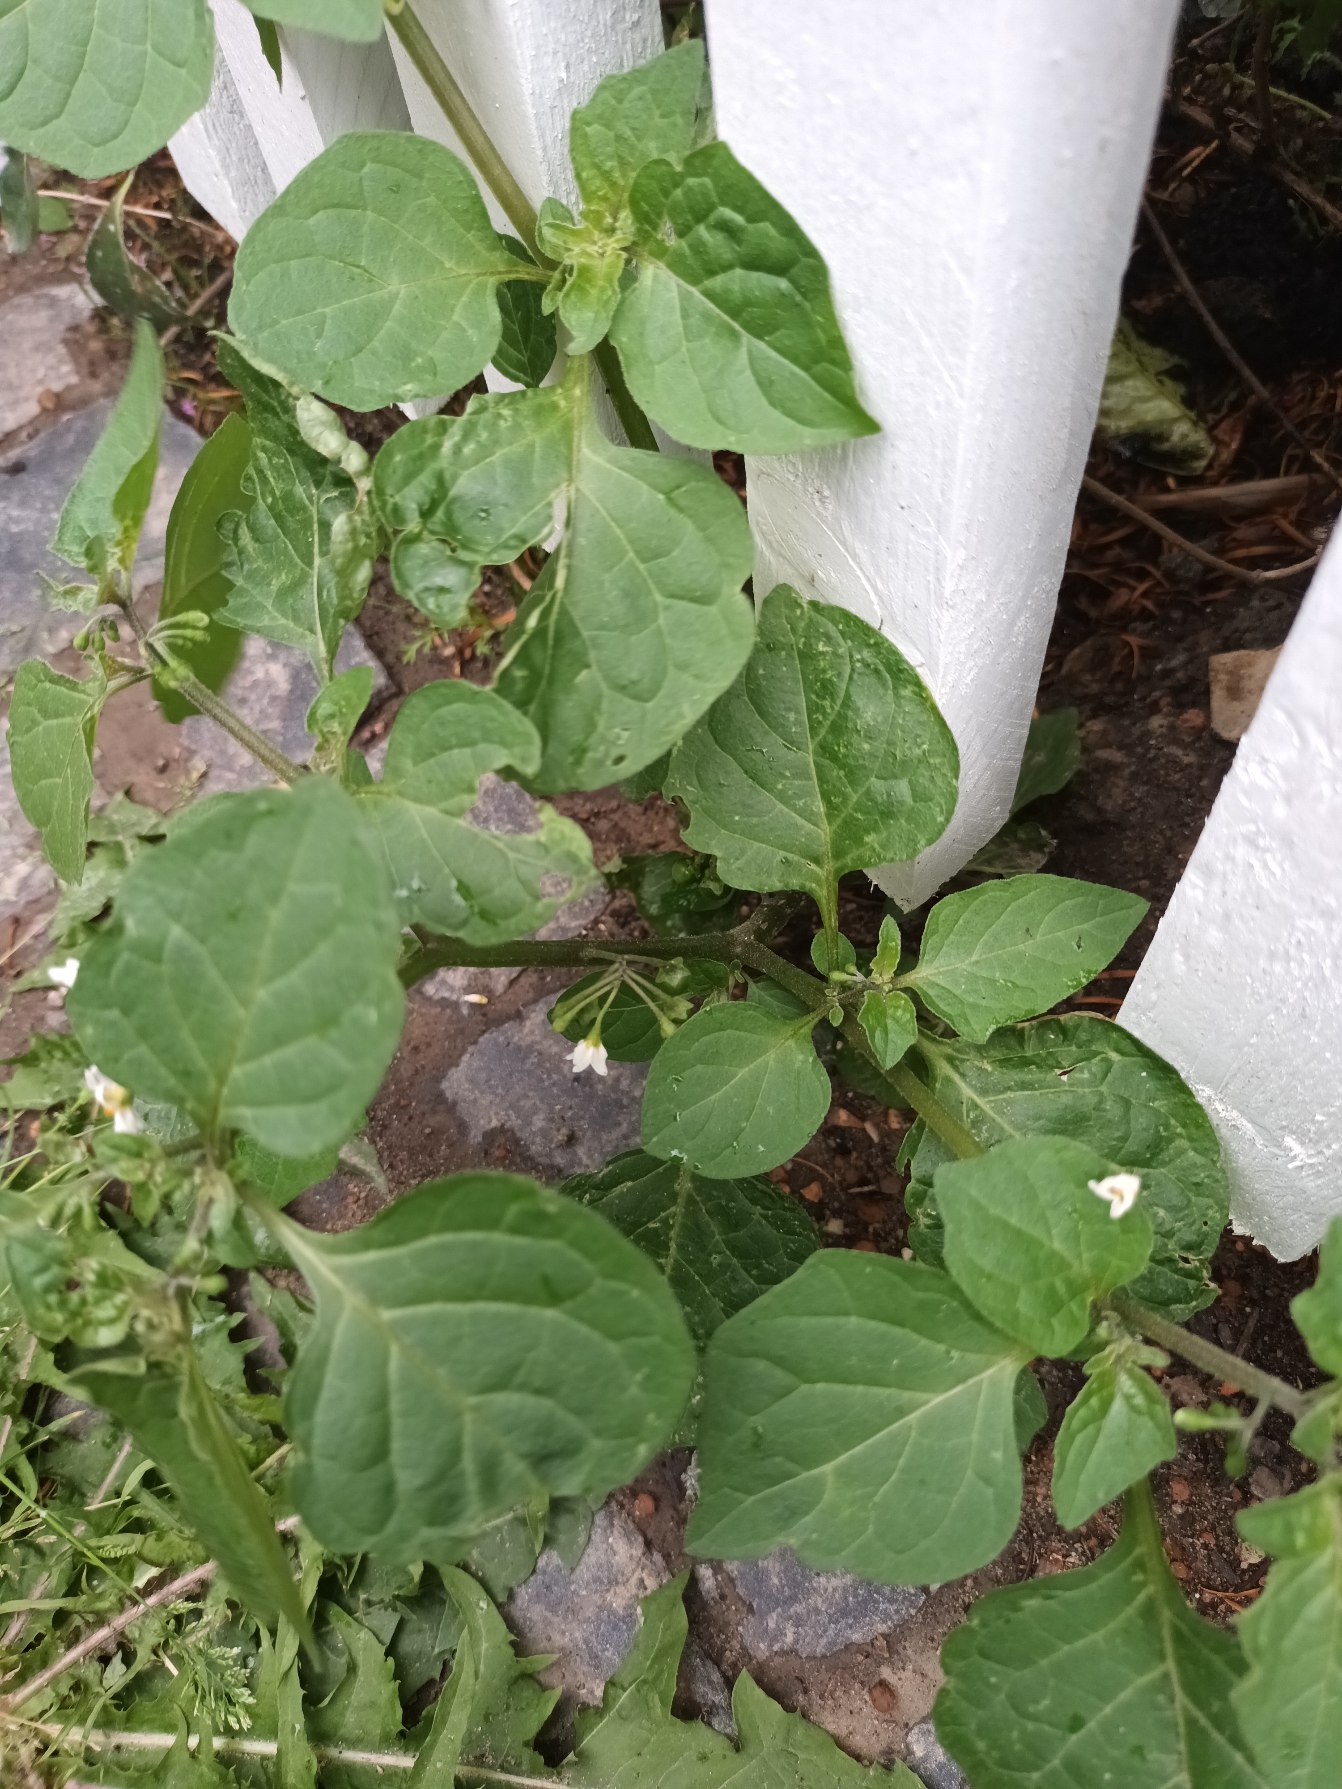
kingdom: Plantae
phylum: Tracheophyta
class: Magnoliopsida
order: Solanales
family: Solanaceae
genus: Solanum
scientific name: Solanum nigrum
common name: Sort natskygge
